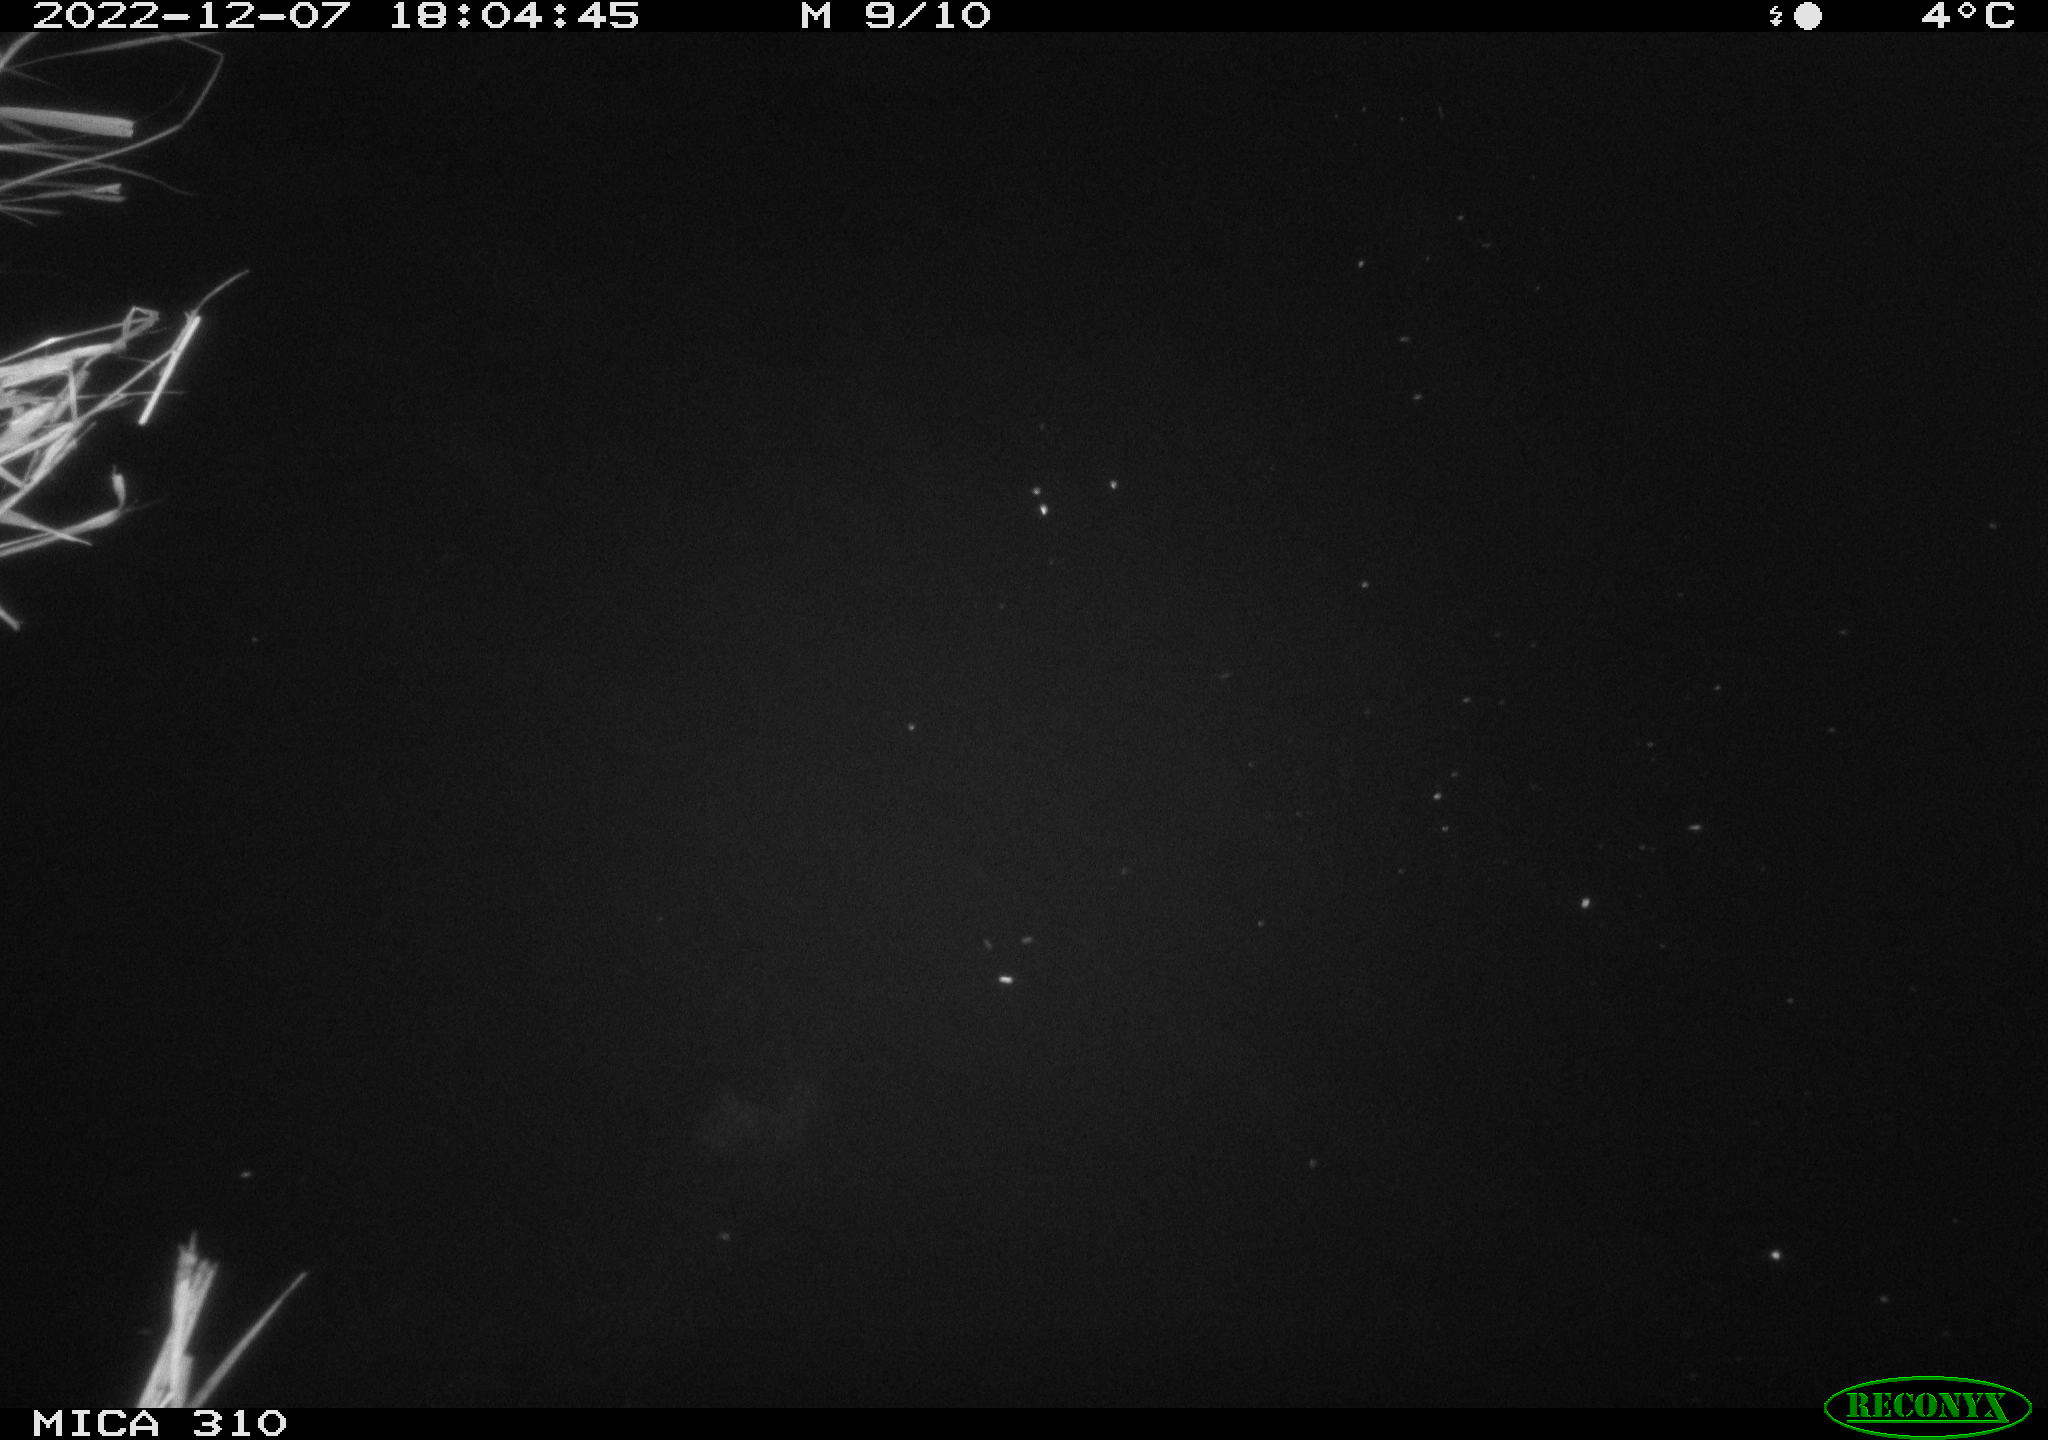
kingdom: Animalia
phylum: Chordata
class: Mammalia
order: Rodentia
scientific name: Rodentia
